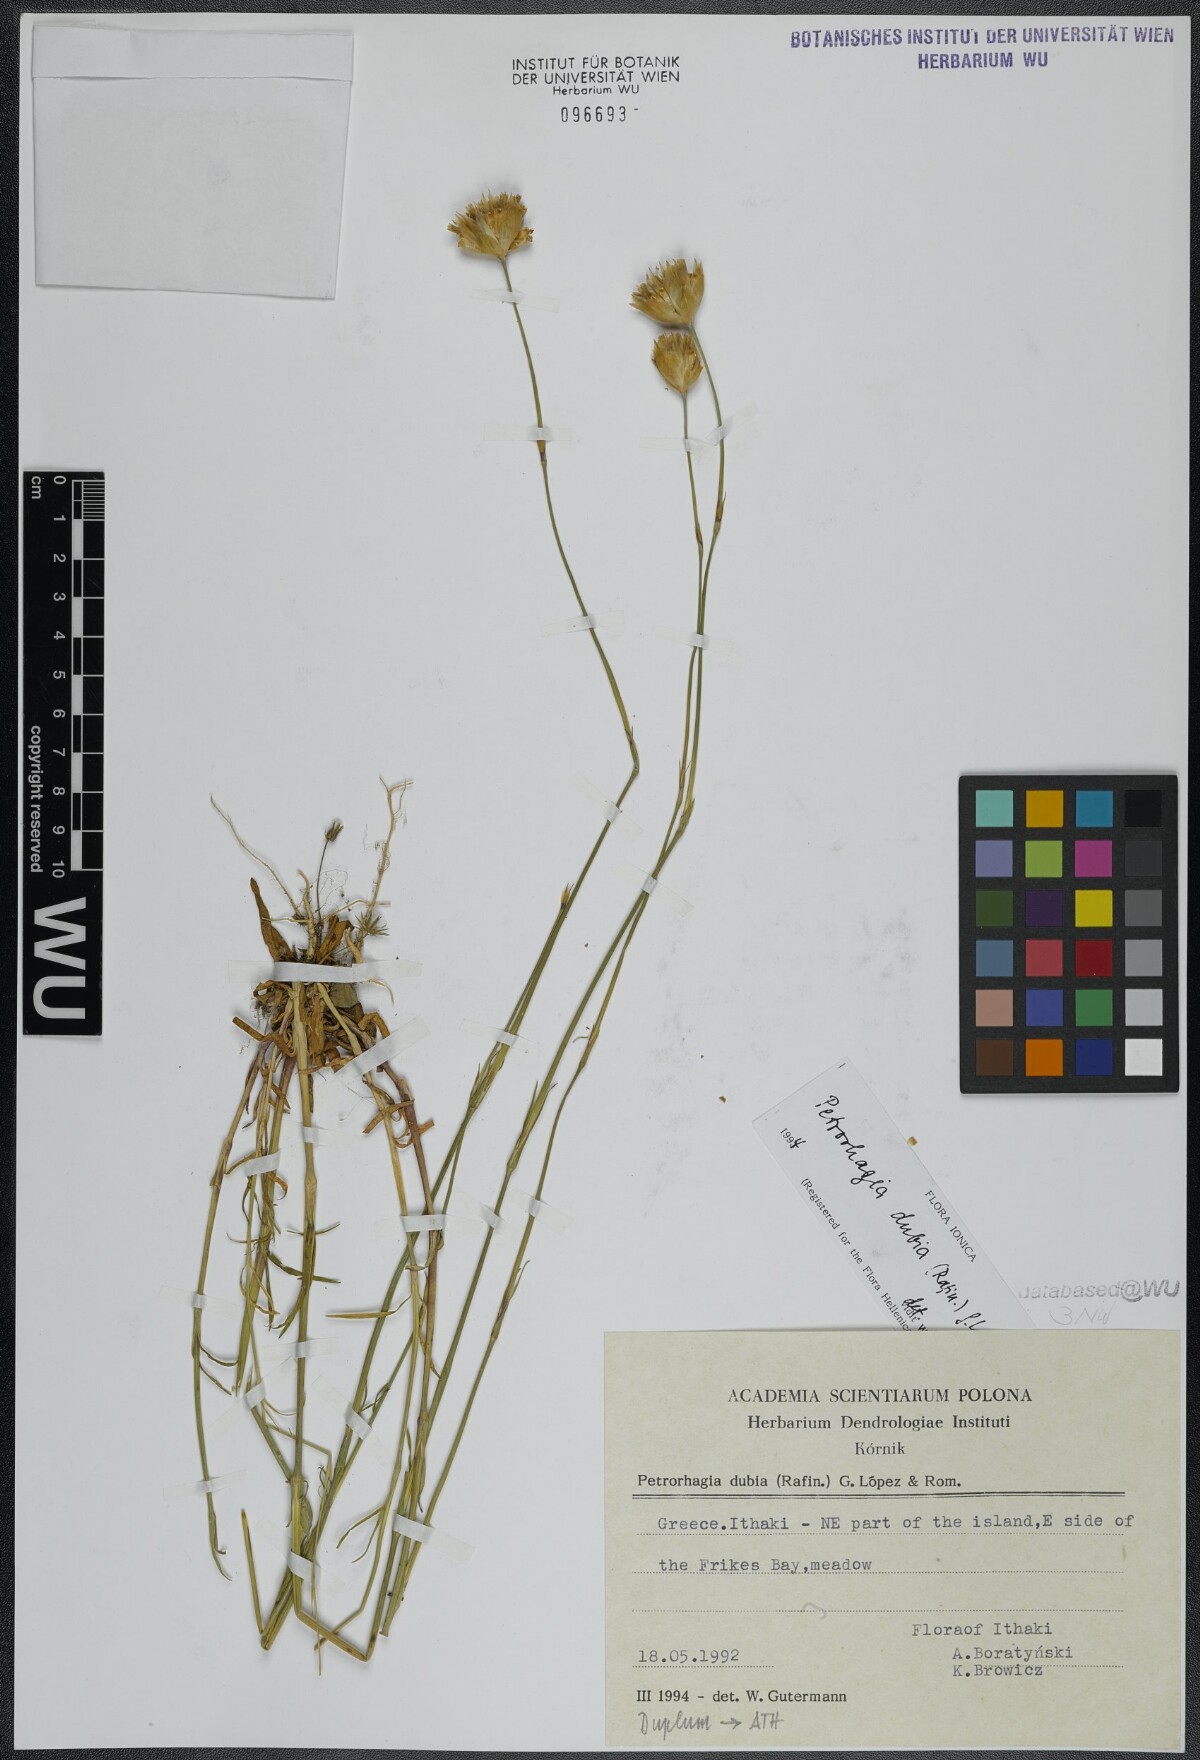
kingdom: Plantae
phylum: Tracheophyta
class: Magnoliopsida
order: Caryophyllales
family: Caryophyllaceae
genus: Petrorhagia
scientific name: Petrorhagia dubia
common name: Hairypink
